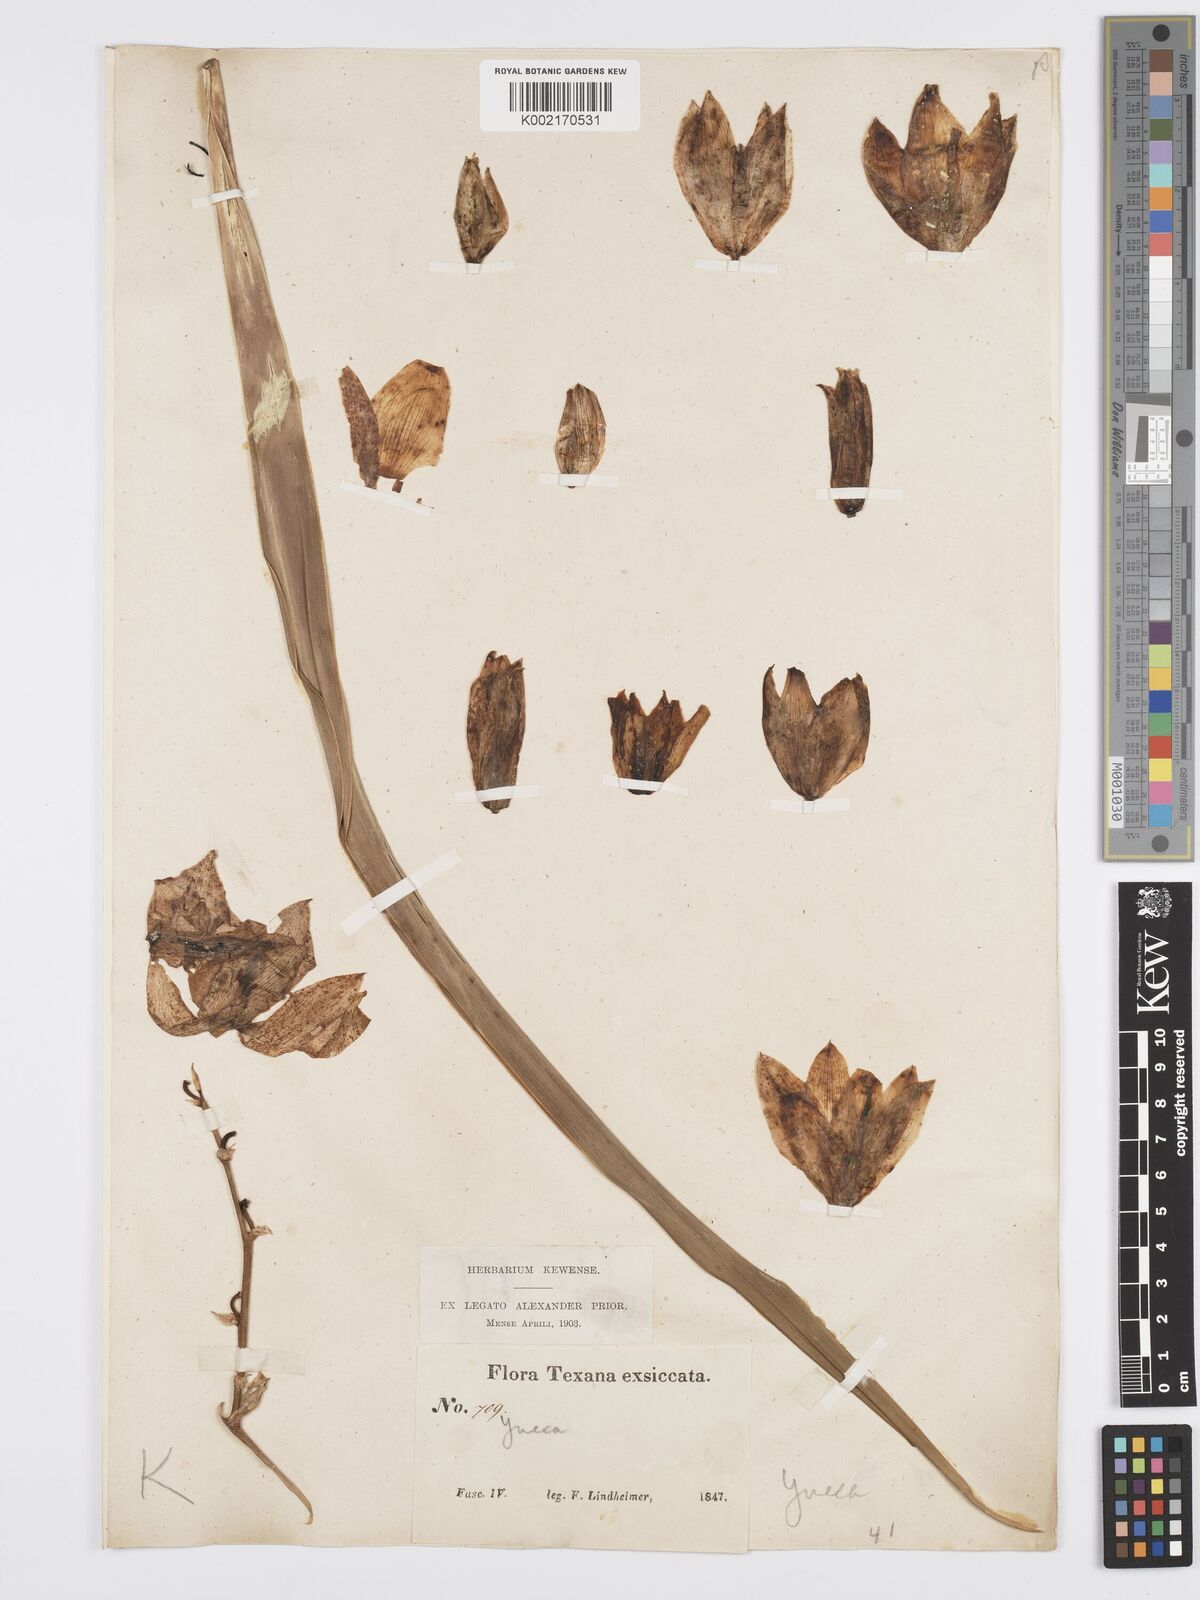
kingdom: Plantae
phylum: Tracheophyta
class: Liliopsida
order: Asparagales
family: Asparagaceae
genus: Yucca
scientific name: Yucca
